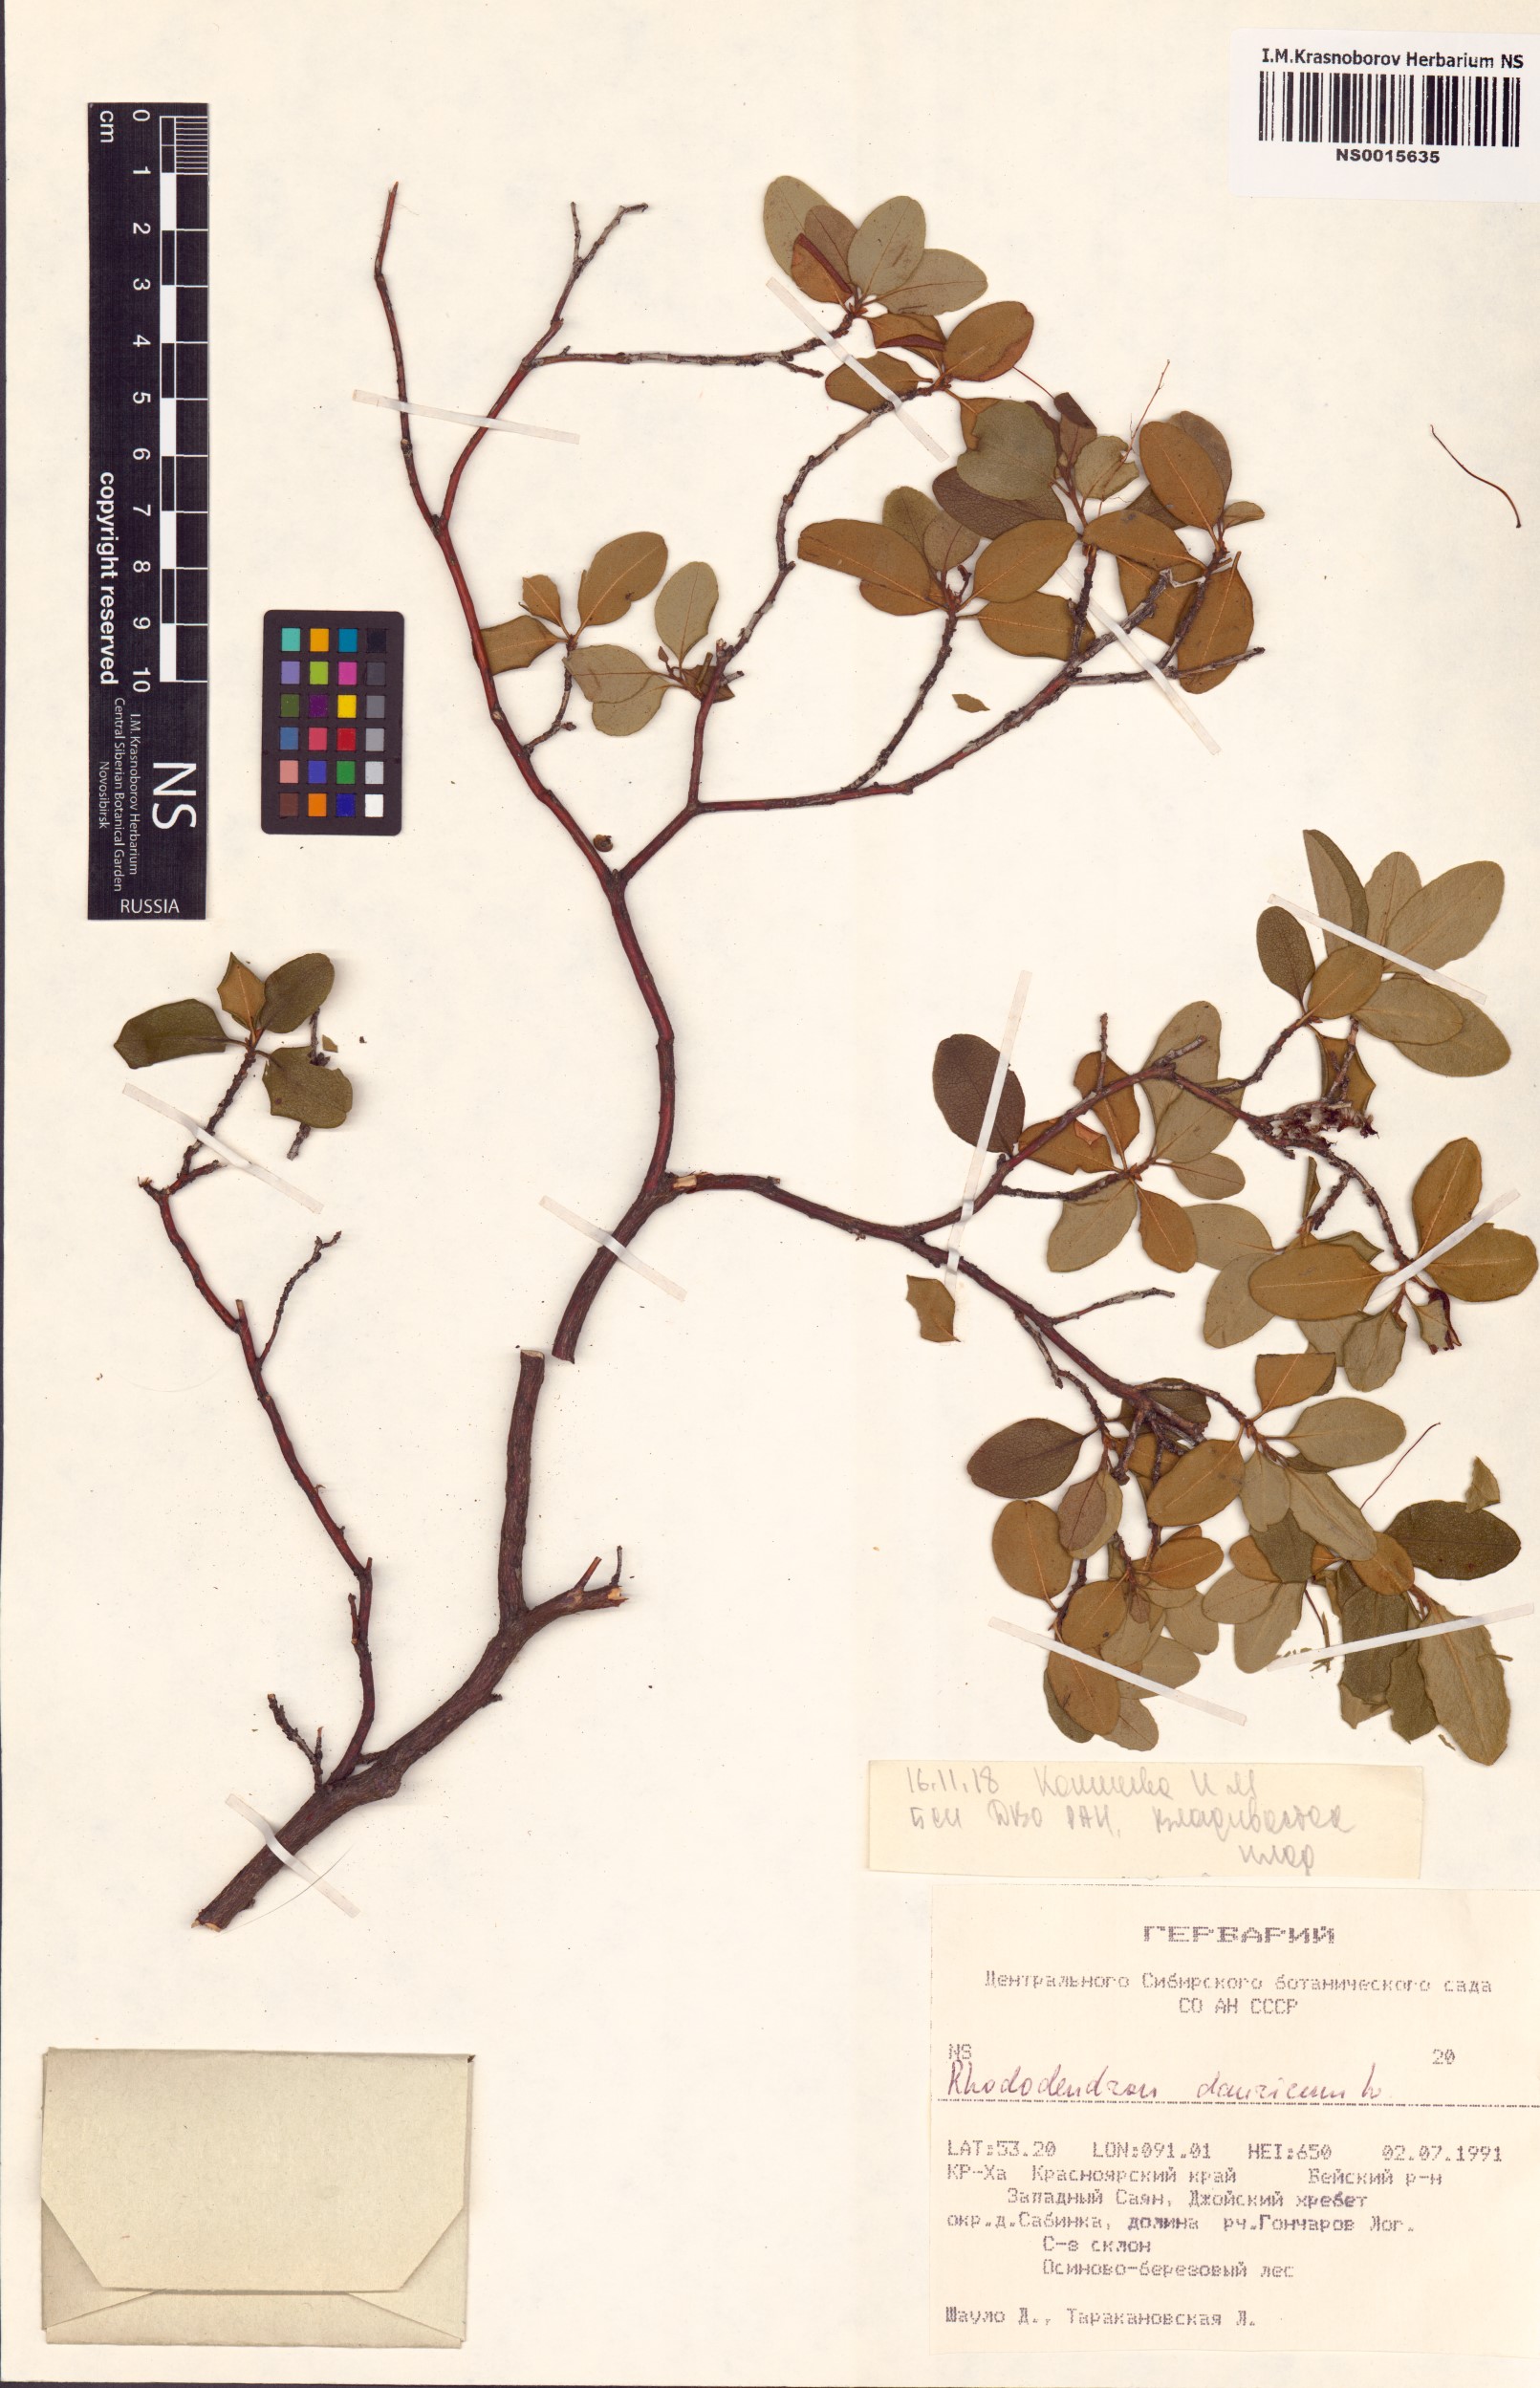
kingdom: Plantae
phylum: Tracheophyta
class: Magnoliopsida
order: Ericales
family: Ericaceae
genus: Rhododendron
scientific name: Rhododendron dauricum
